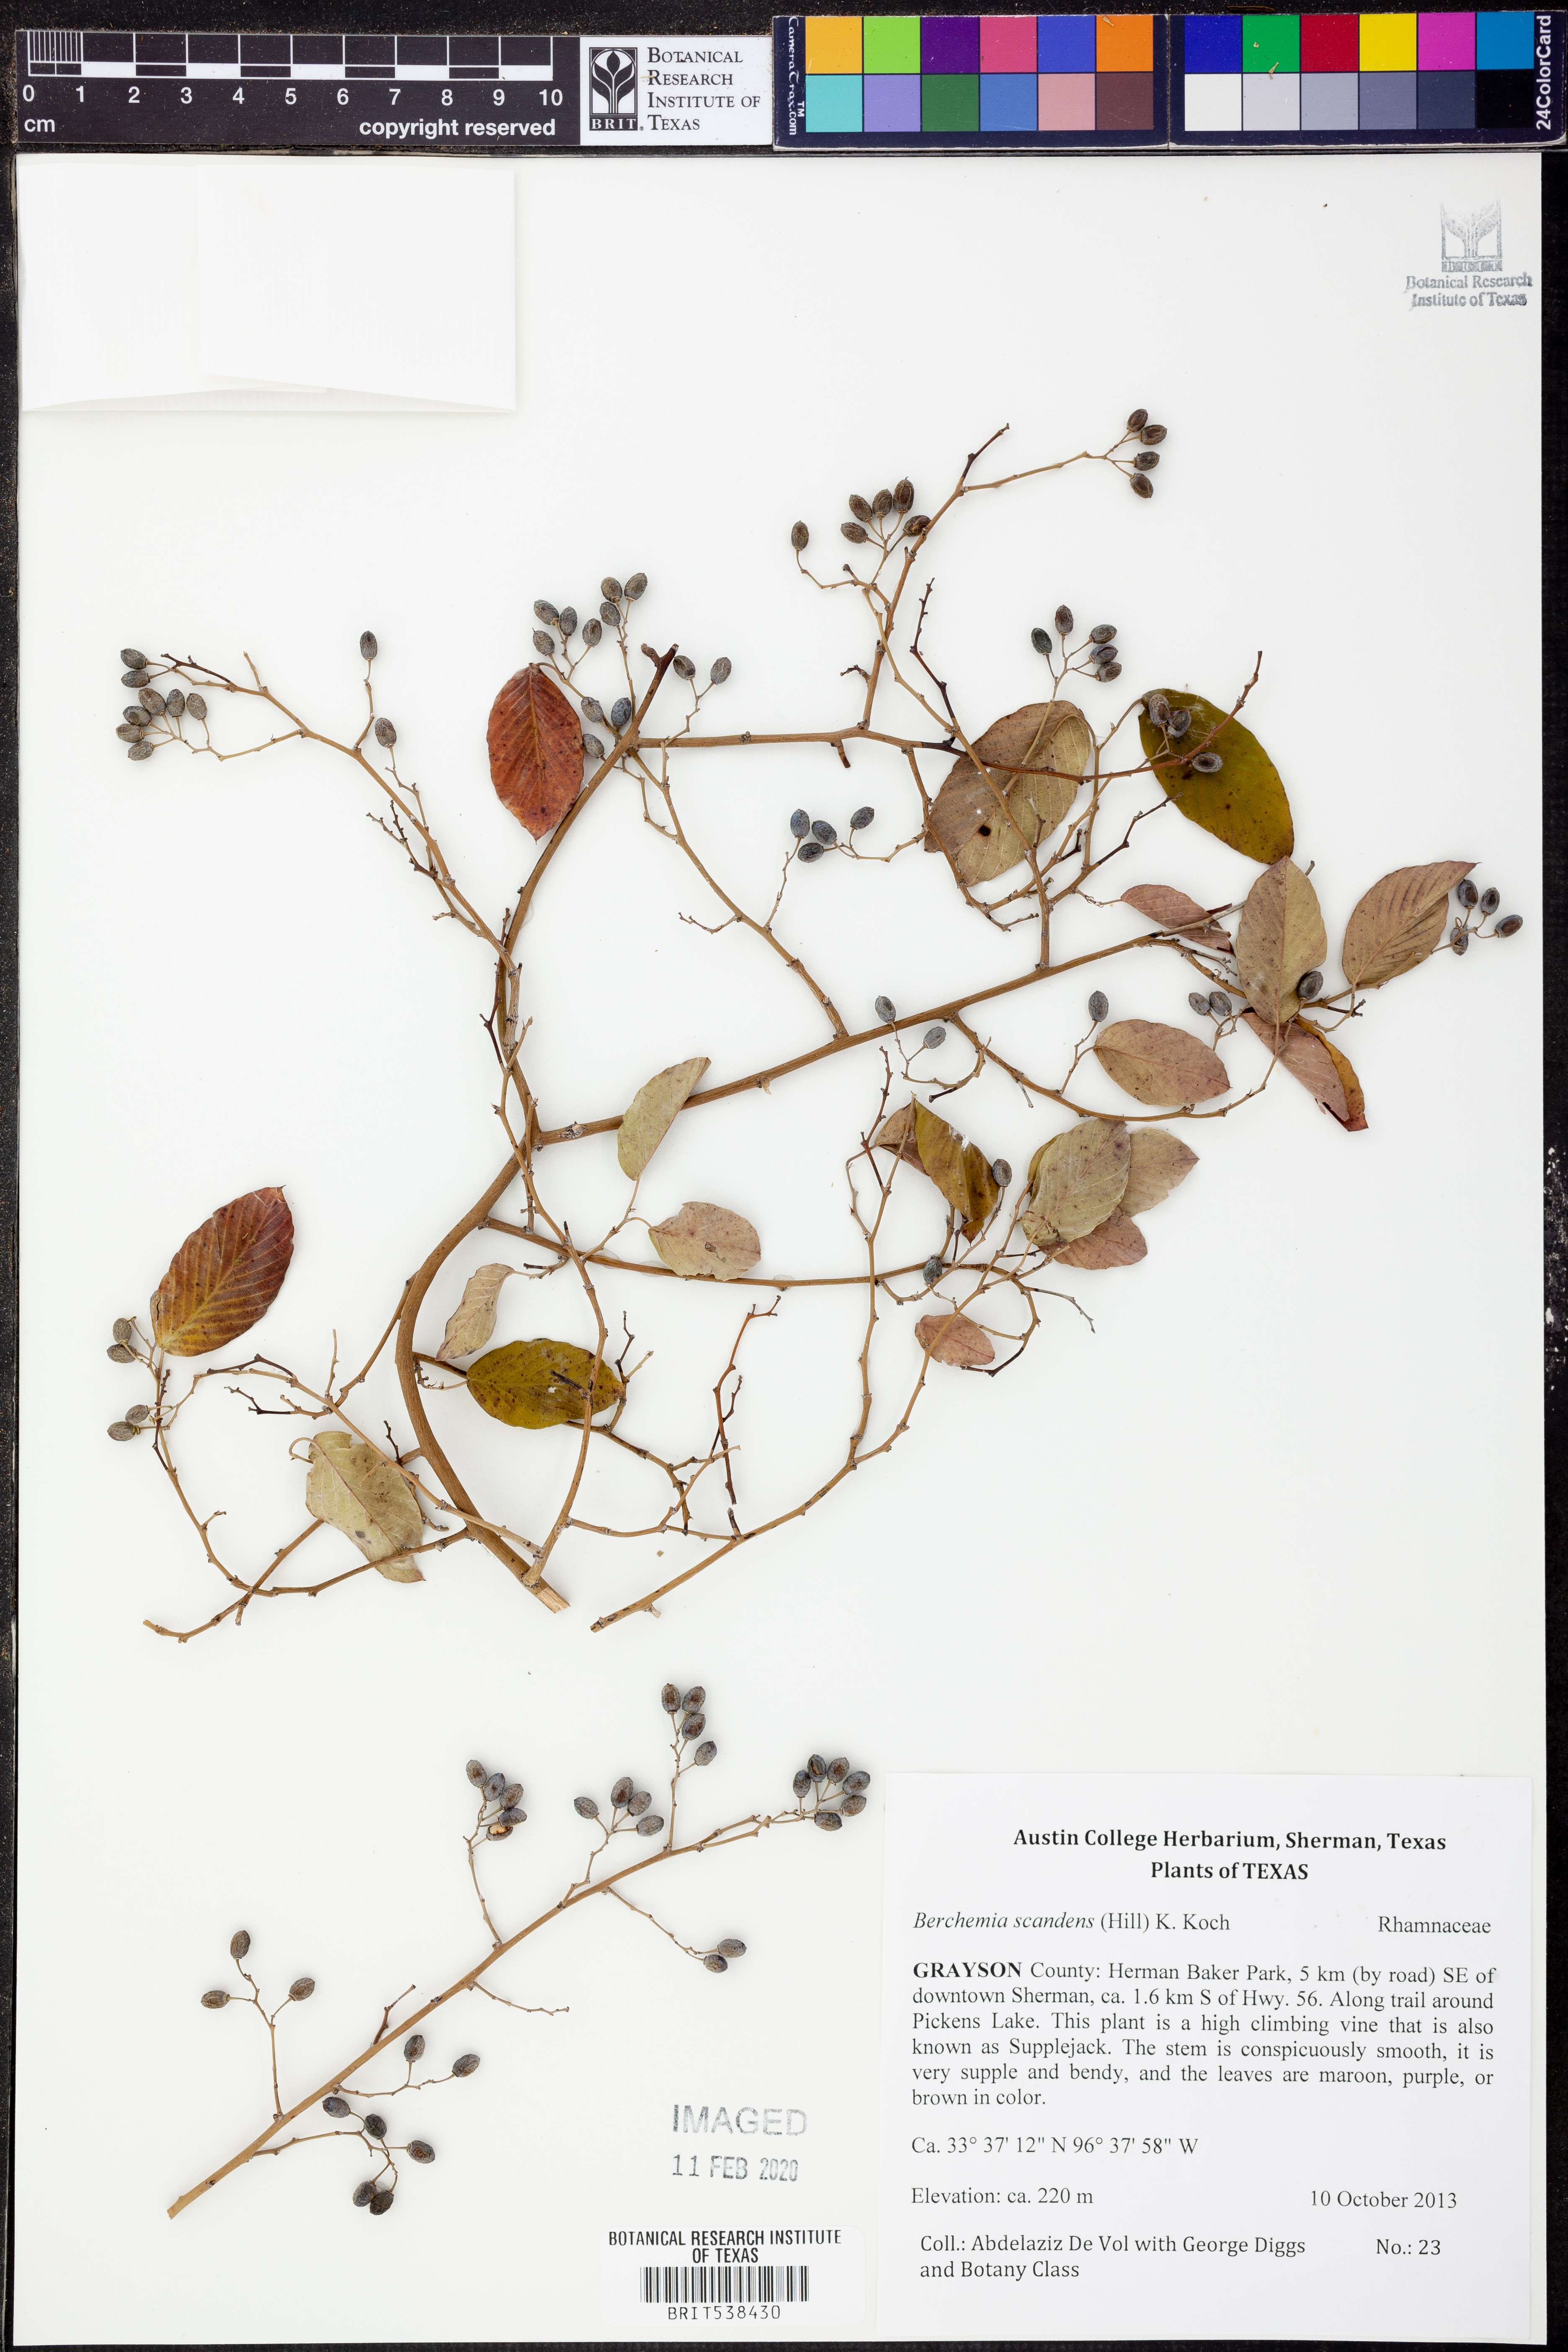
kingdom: Plantae
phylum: Tracheophyta
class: Magnoliopsida
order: Rosales
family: Rhamnaceae
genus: Berchemia
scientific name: Berchemia scandens
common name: Supplejack
